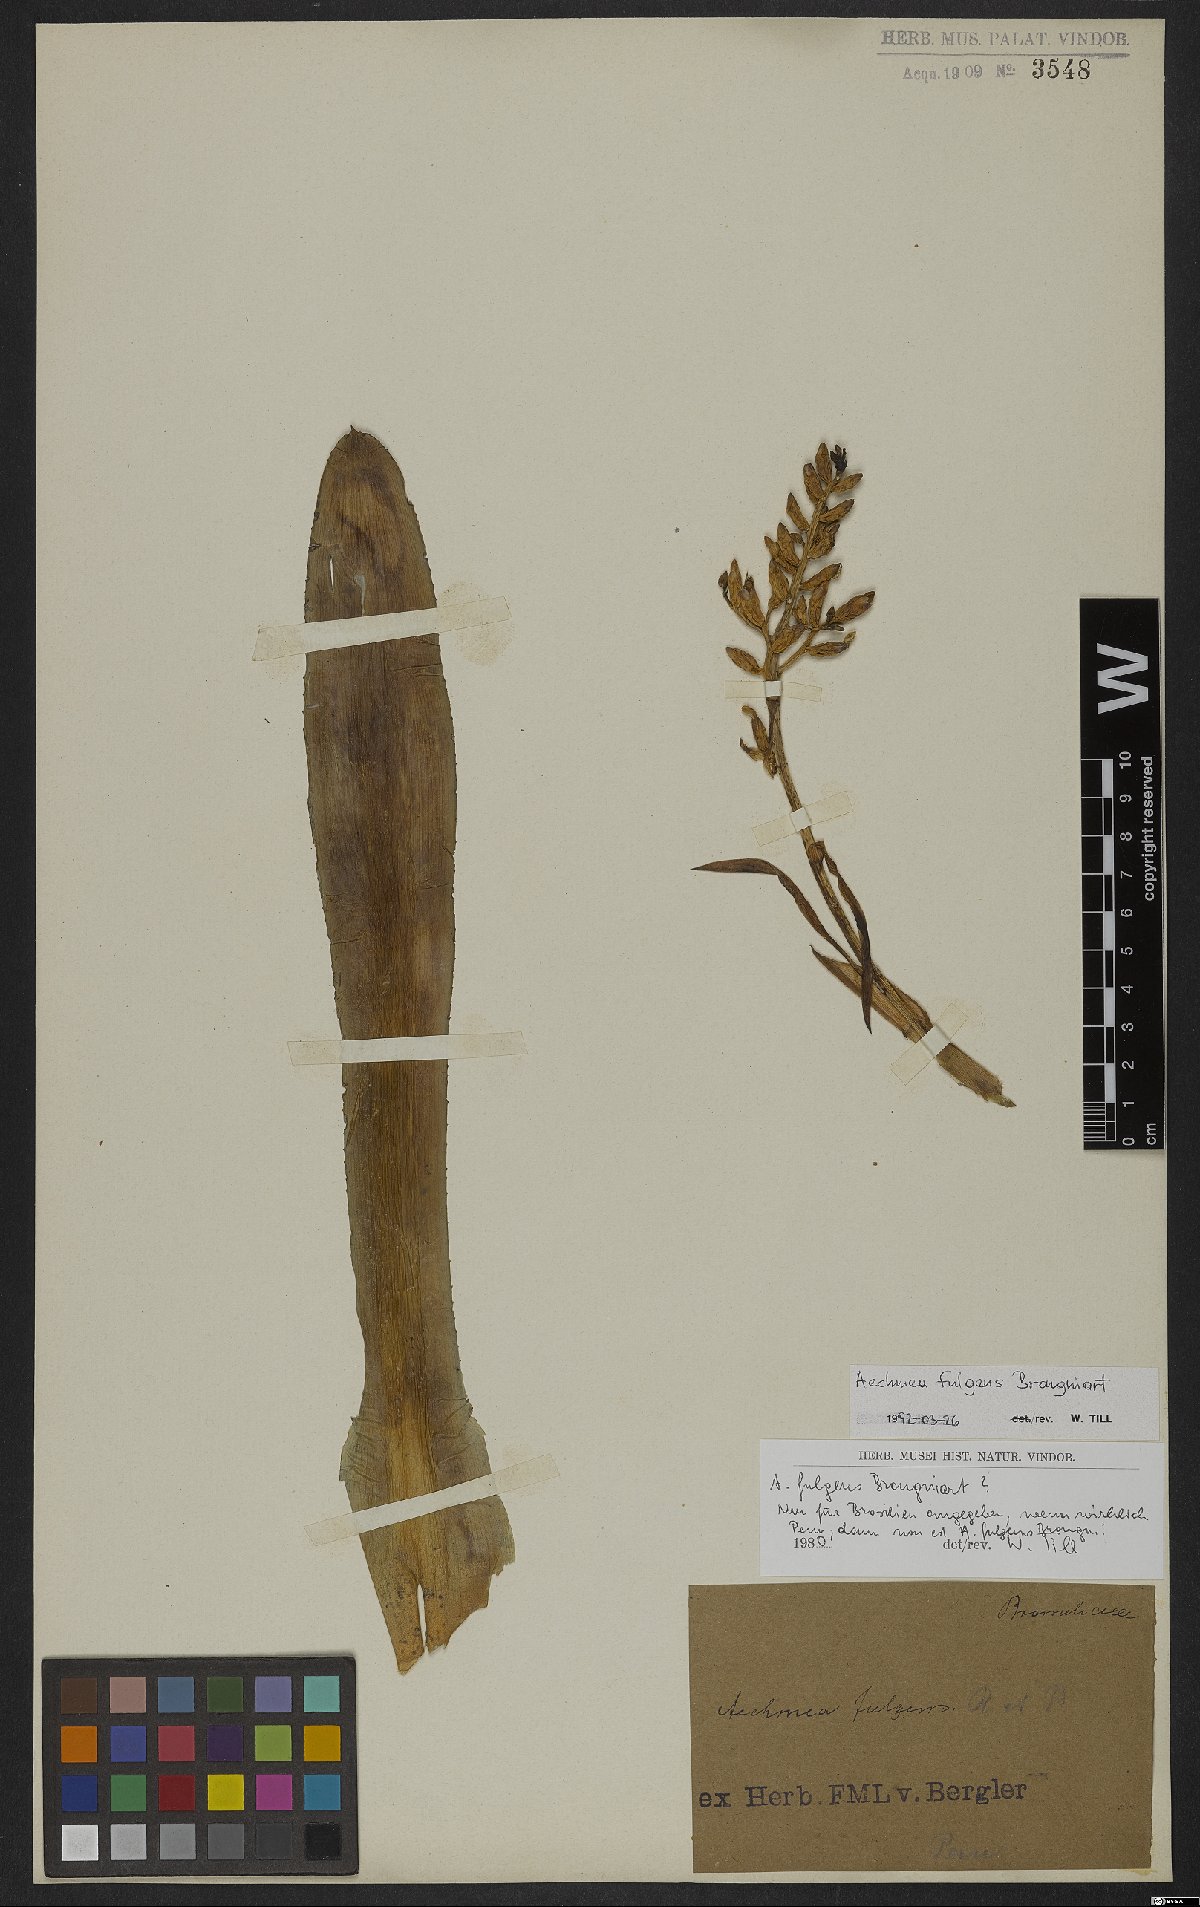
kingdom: Plantae
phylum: Tracheophyta
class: Liliopsida
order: Poales
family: Bromeliaceae
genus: Aechmea
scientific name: Aechmea fulgens
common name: Coralberry
